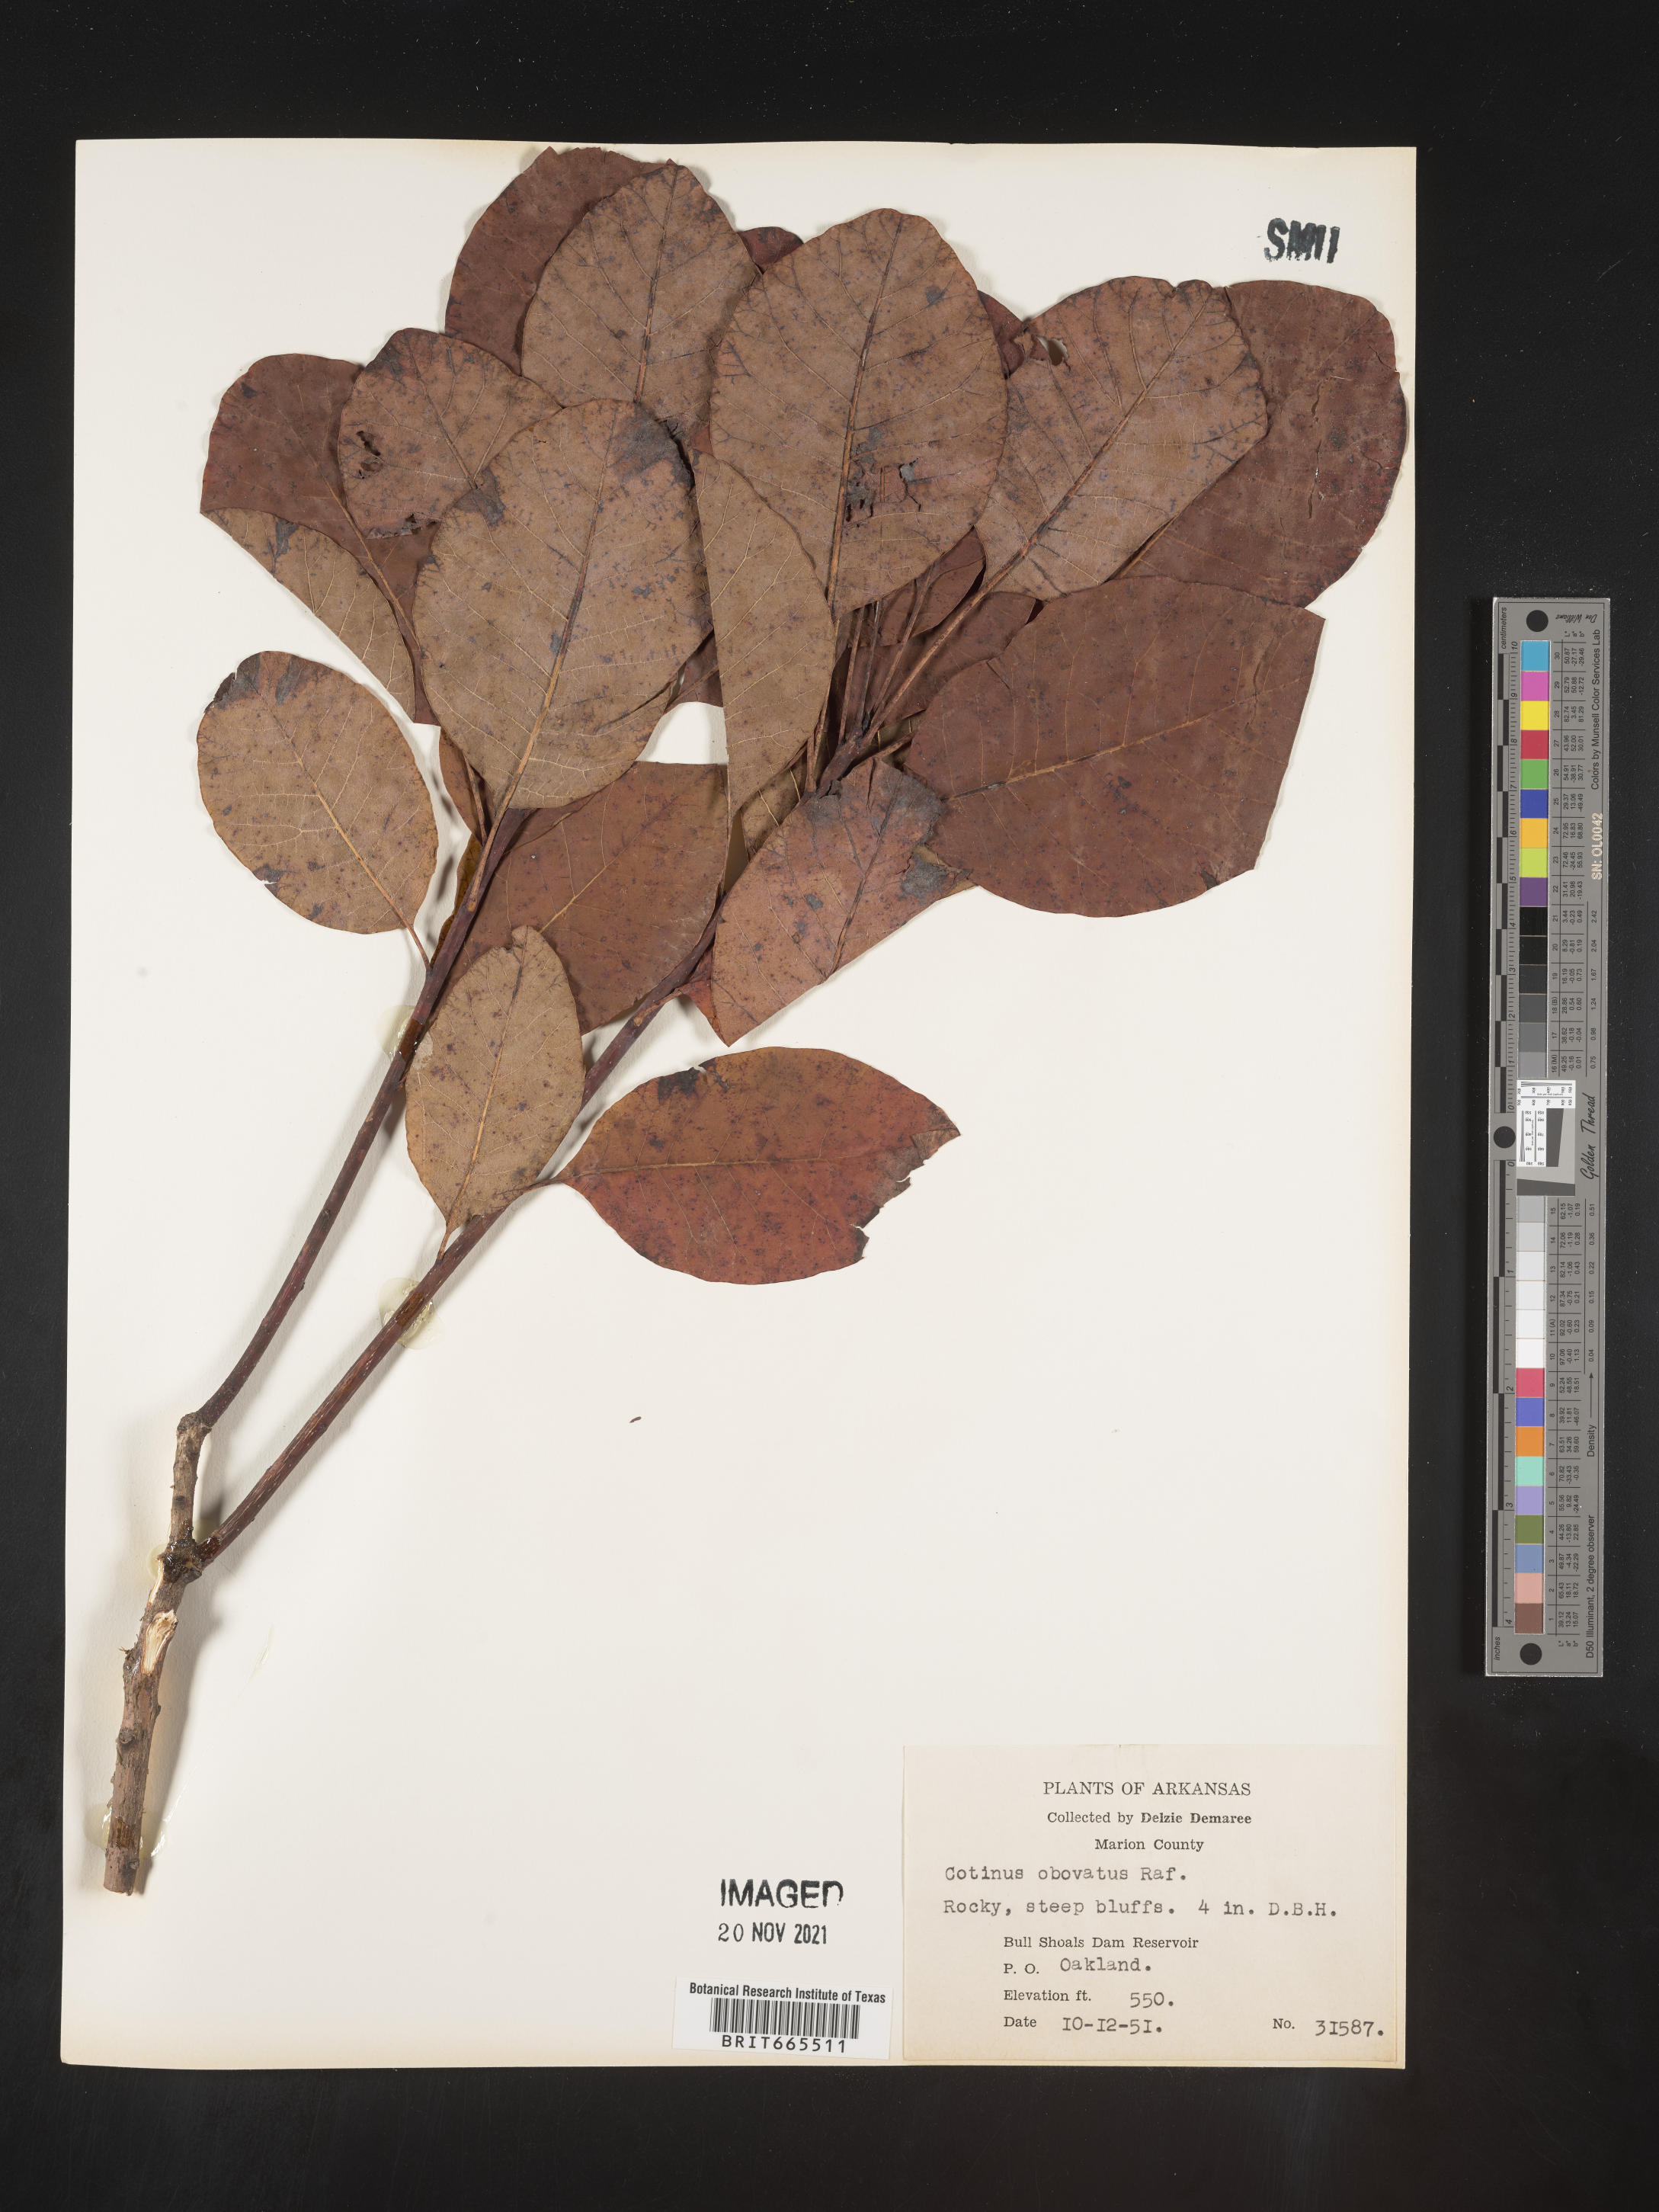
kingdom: Plantae
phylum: Tracheophyta
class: Magnoliopsida
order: Sapindales
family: Anacardiaceae
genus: Cotinus
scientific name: Cotinus obovatus
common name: Chittamwood
